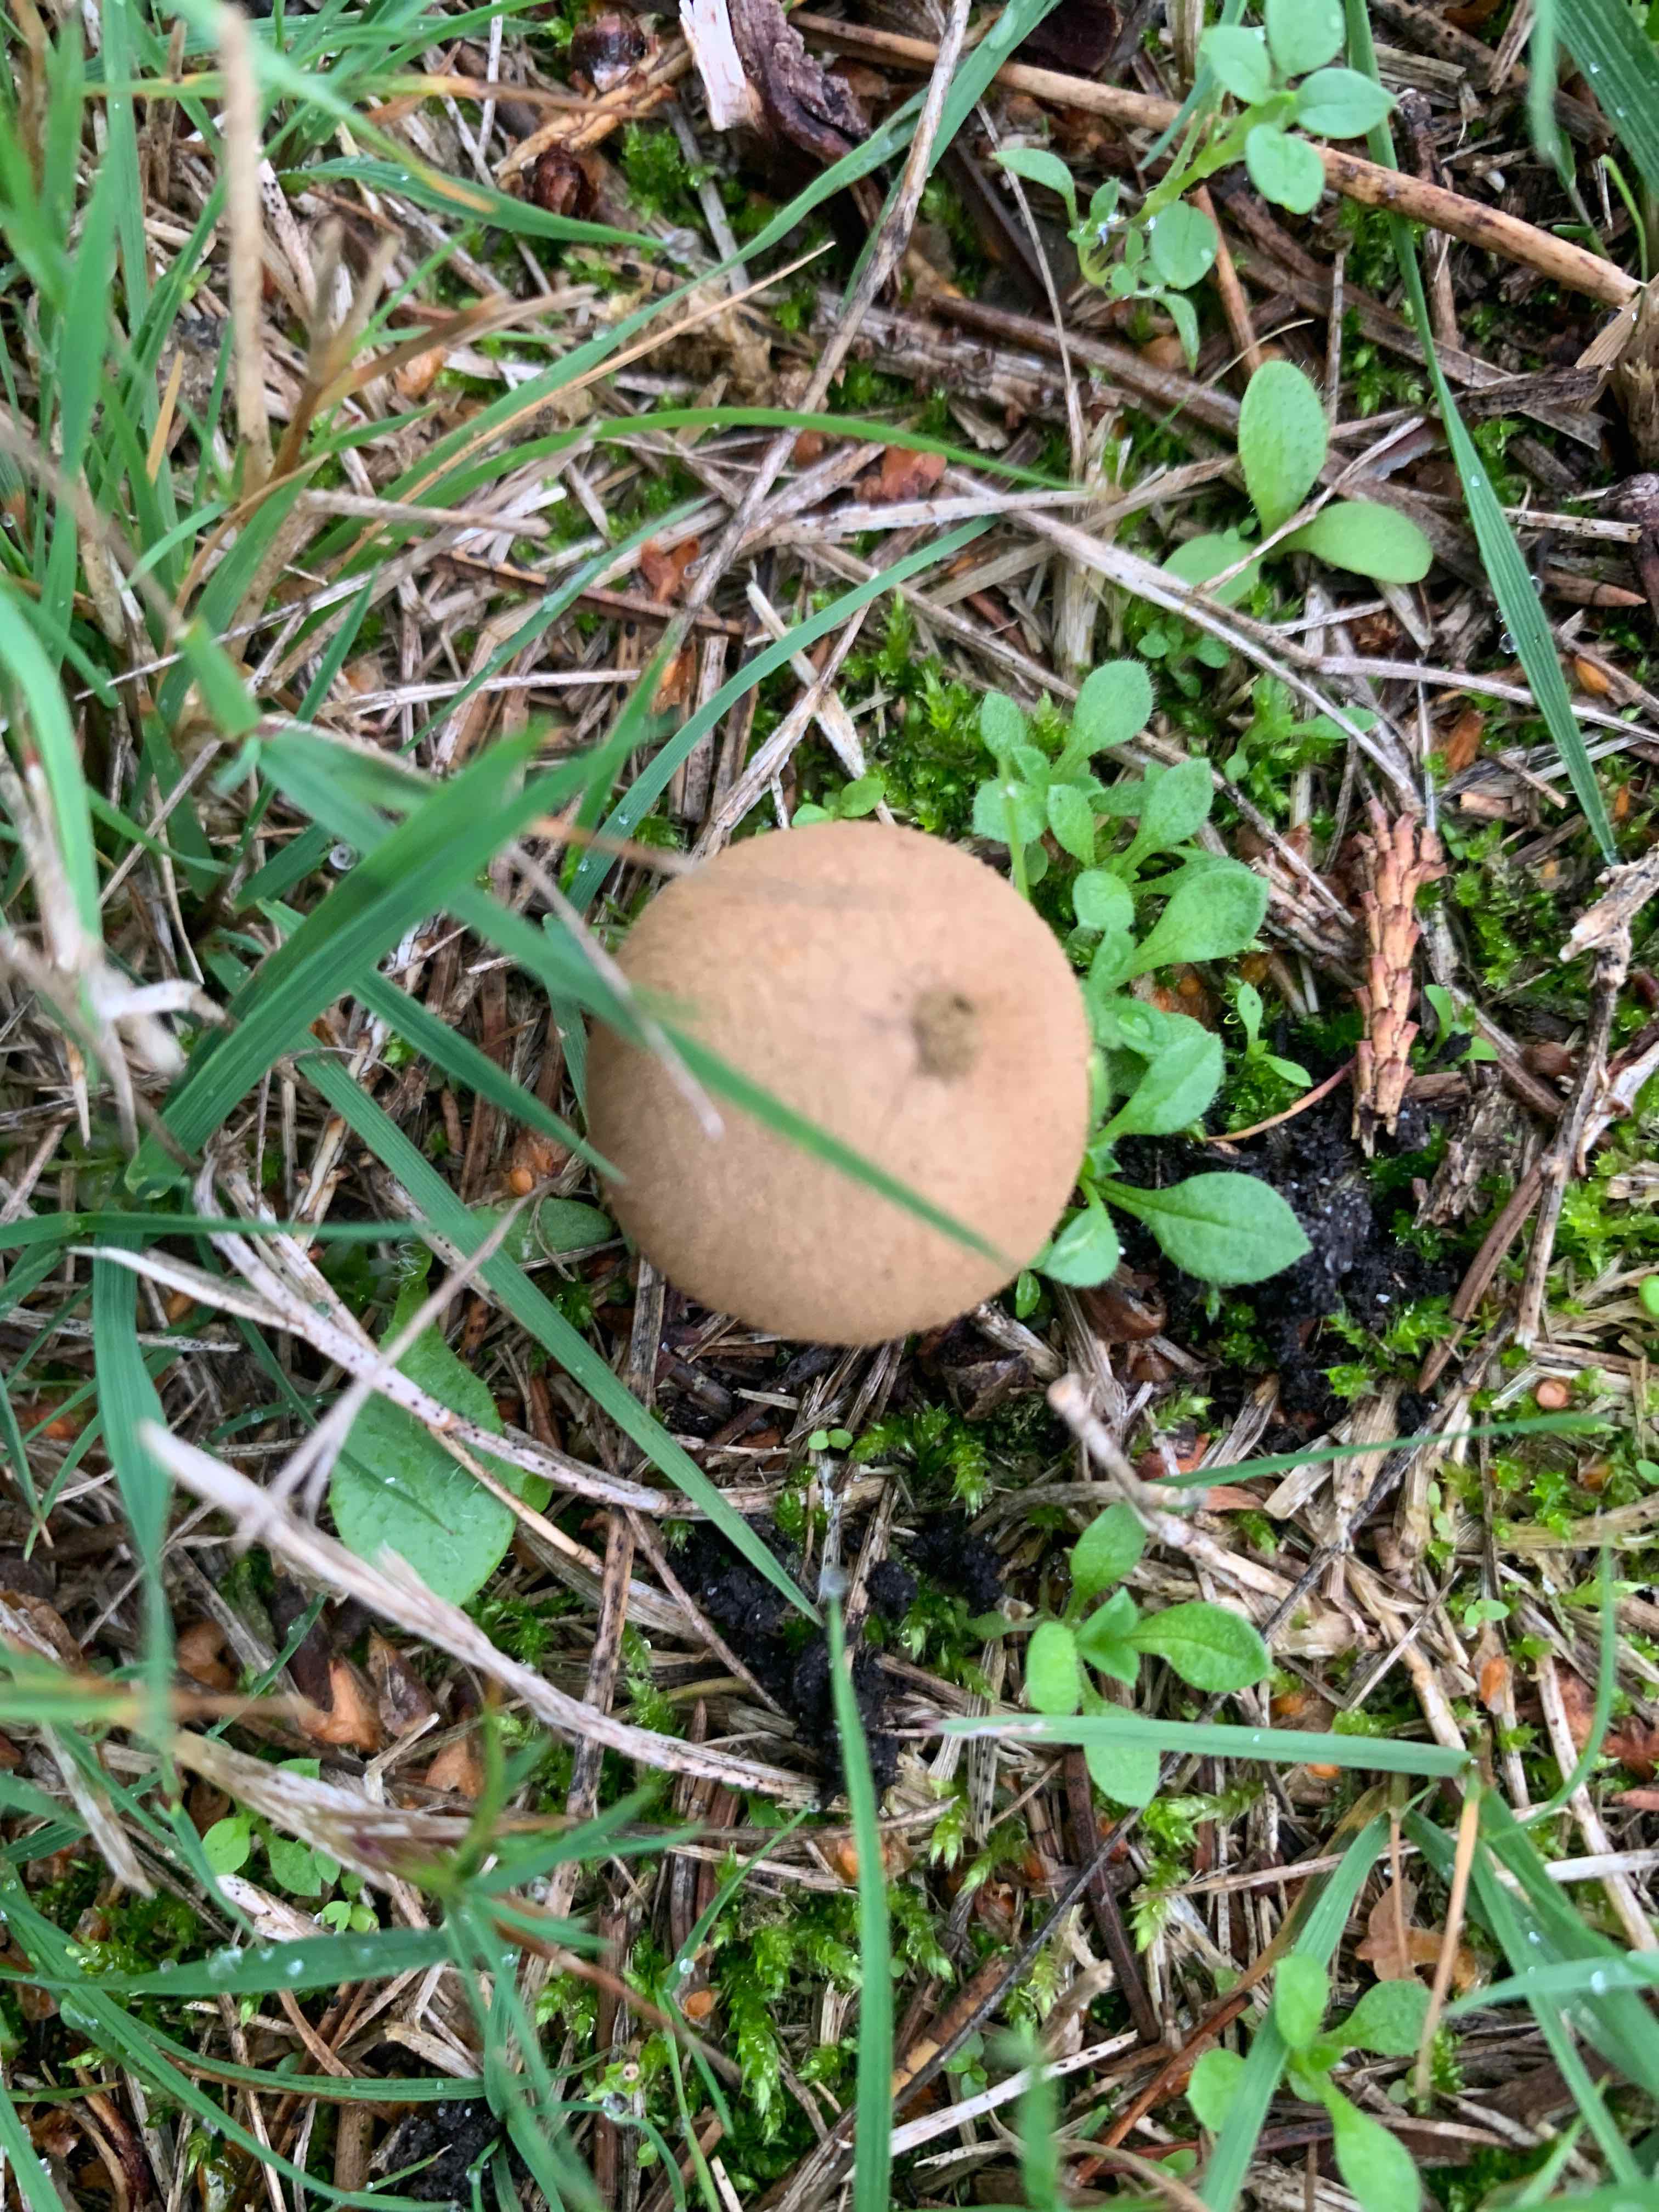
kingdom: Fungi
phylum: Basidiomycota
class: Agaricomycetes
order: Agaricales
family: Lycoperdaceae
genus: Apioperdon
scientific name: Apioperdon pyriforme
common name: pære-støvbold
